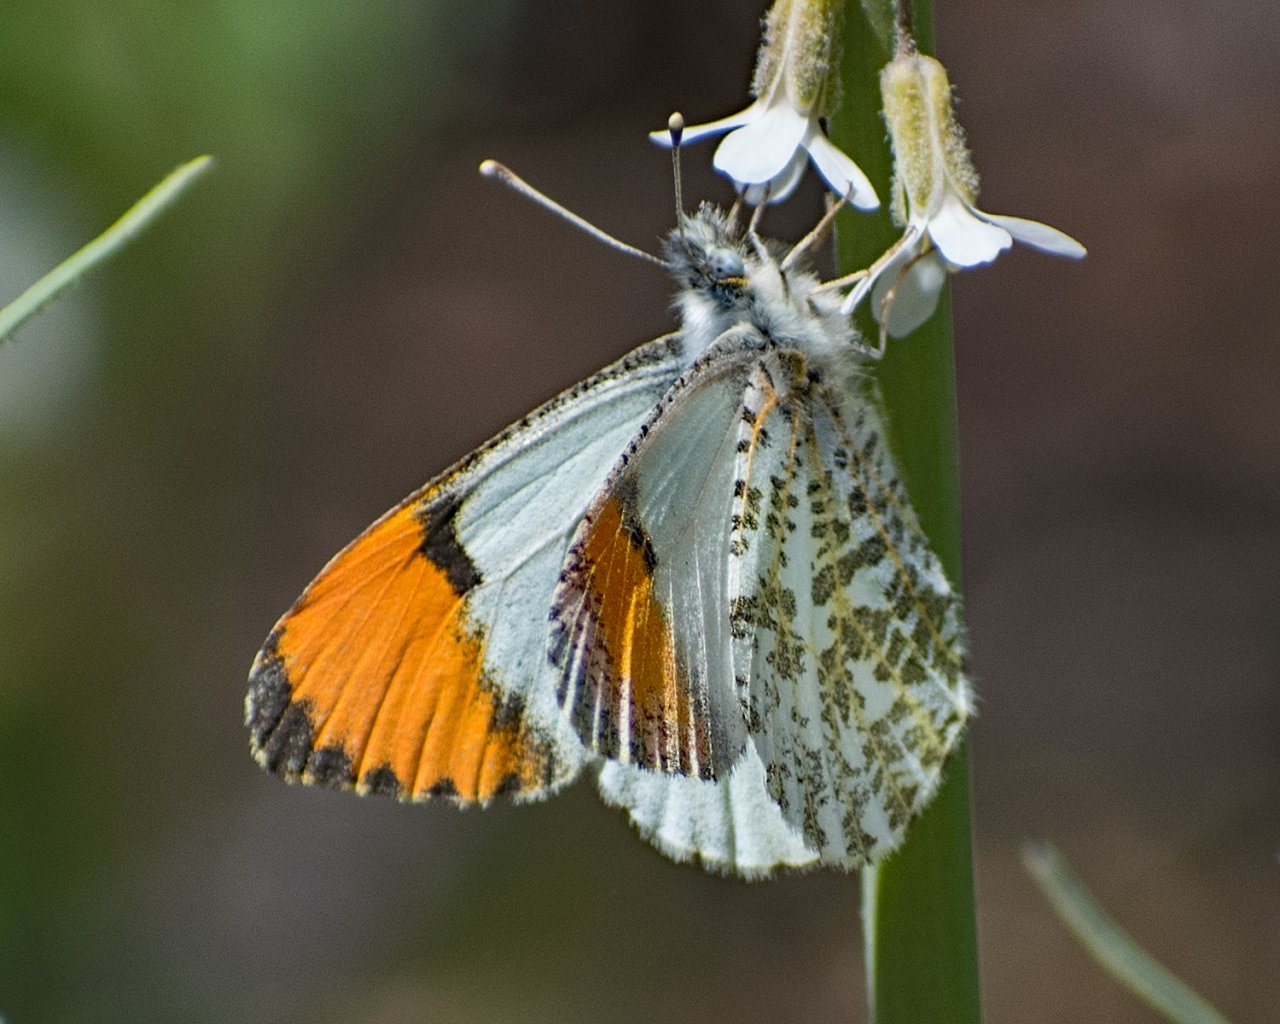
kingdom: Animalia
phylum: Arthropoda
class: Insecta
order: Lepidoptera
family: Pieridae
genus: Anthocharis
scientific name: Anthocharis sara
